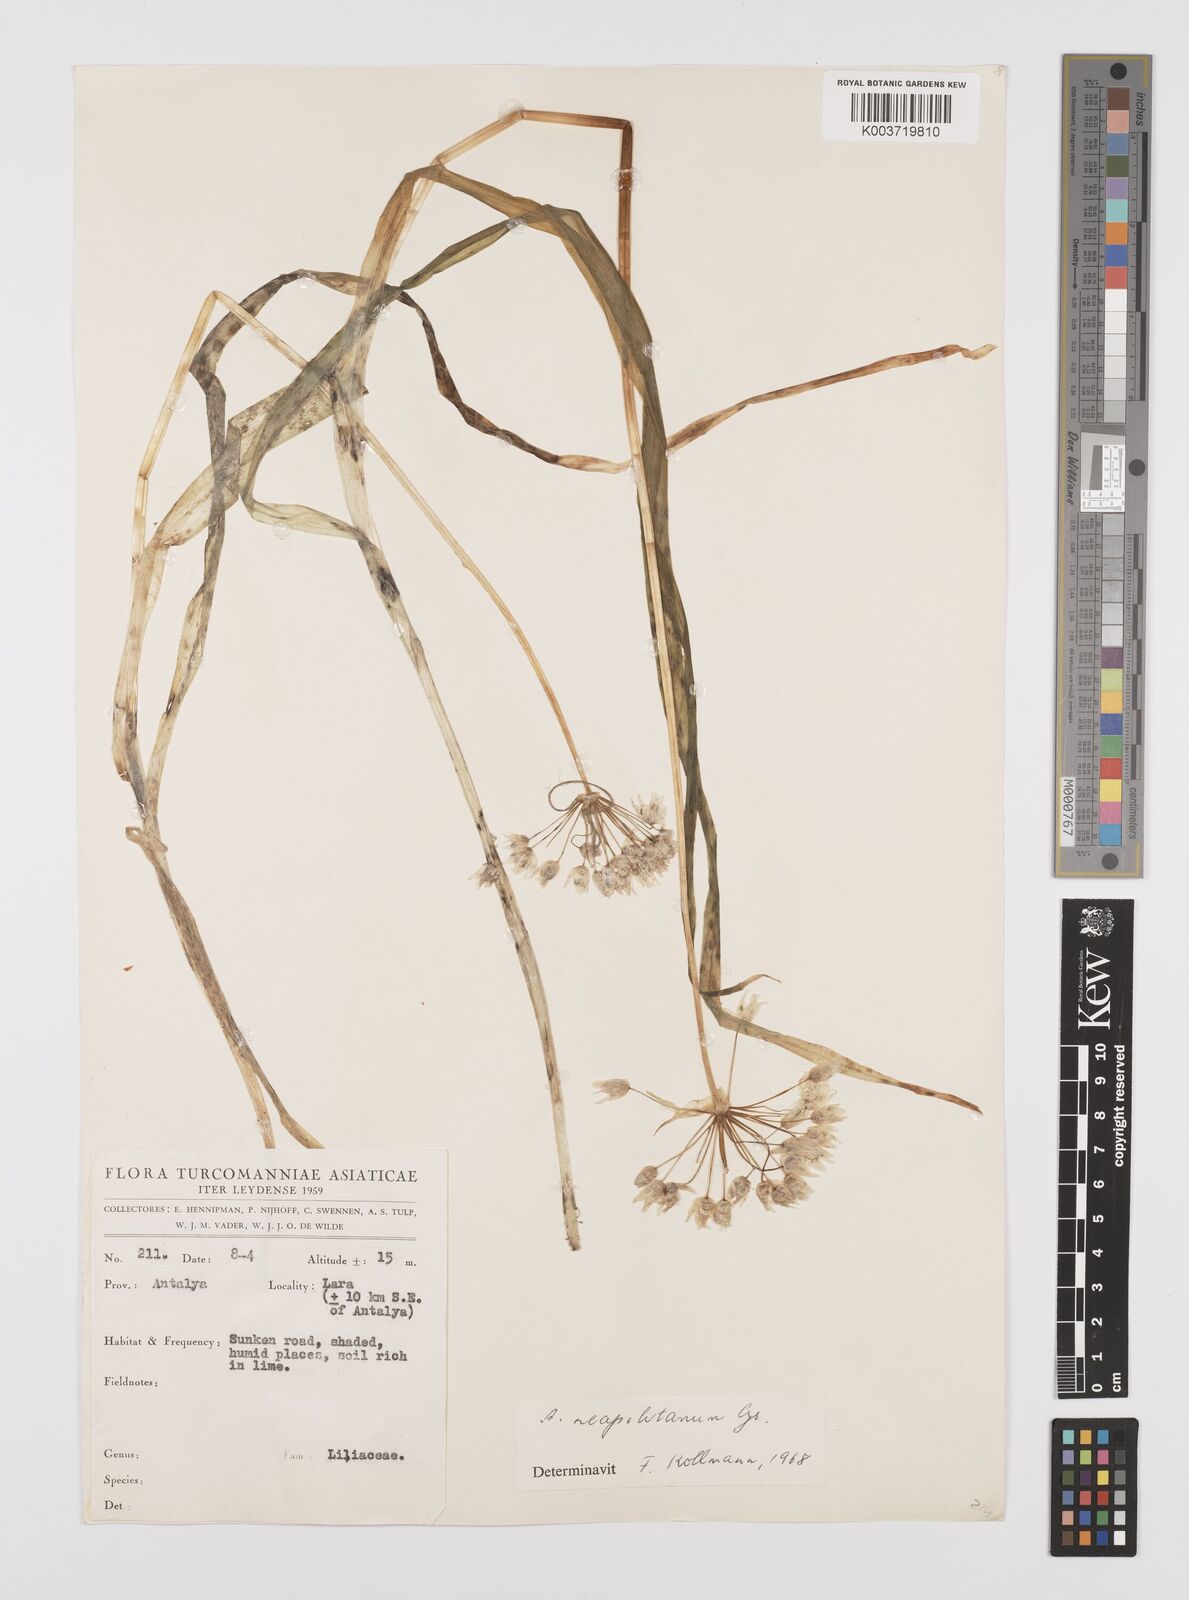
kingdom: Plantae
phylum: Tracheophyta
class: Liliopsida
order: Asparagales
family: Amaryllidaceae
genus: Allium
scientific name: Allium neapolitanum
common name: Neapolitan garlic
